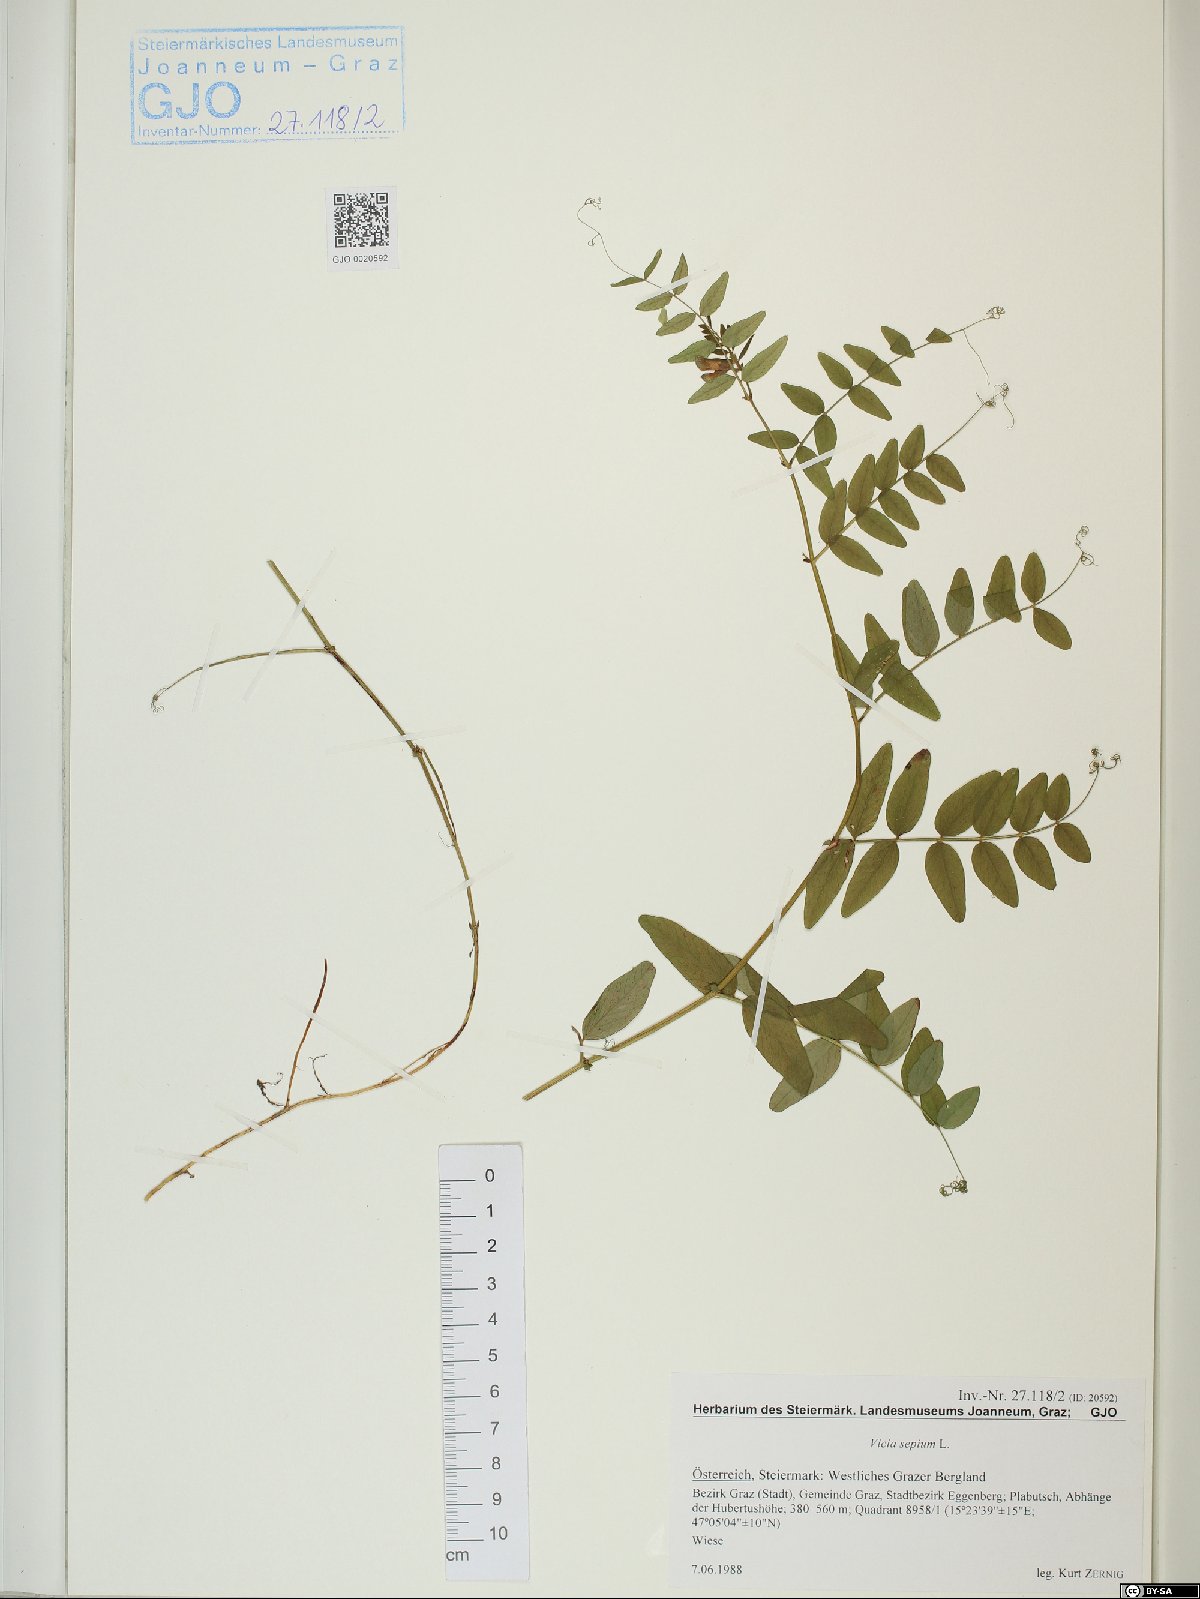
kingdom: Plantae
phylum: Tracheophyta
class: Magnoliopsida
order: Fabales
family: Fabaceae
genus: Vicia
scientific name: Vicia sepium
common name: Bush vetch
